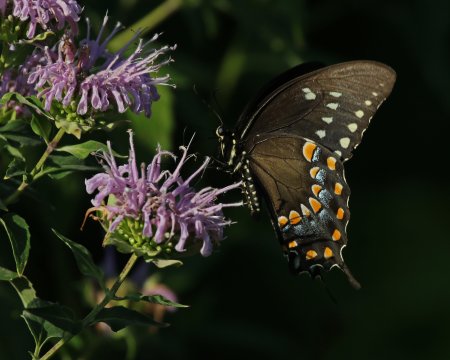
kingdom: Animalia
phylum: Arthropoda
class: Insecta
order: Lepidoptera
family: Papilionidae
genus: Pterourus
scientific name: Pterourus troilus
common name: Spicebush Swallowtail
